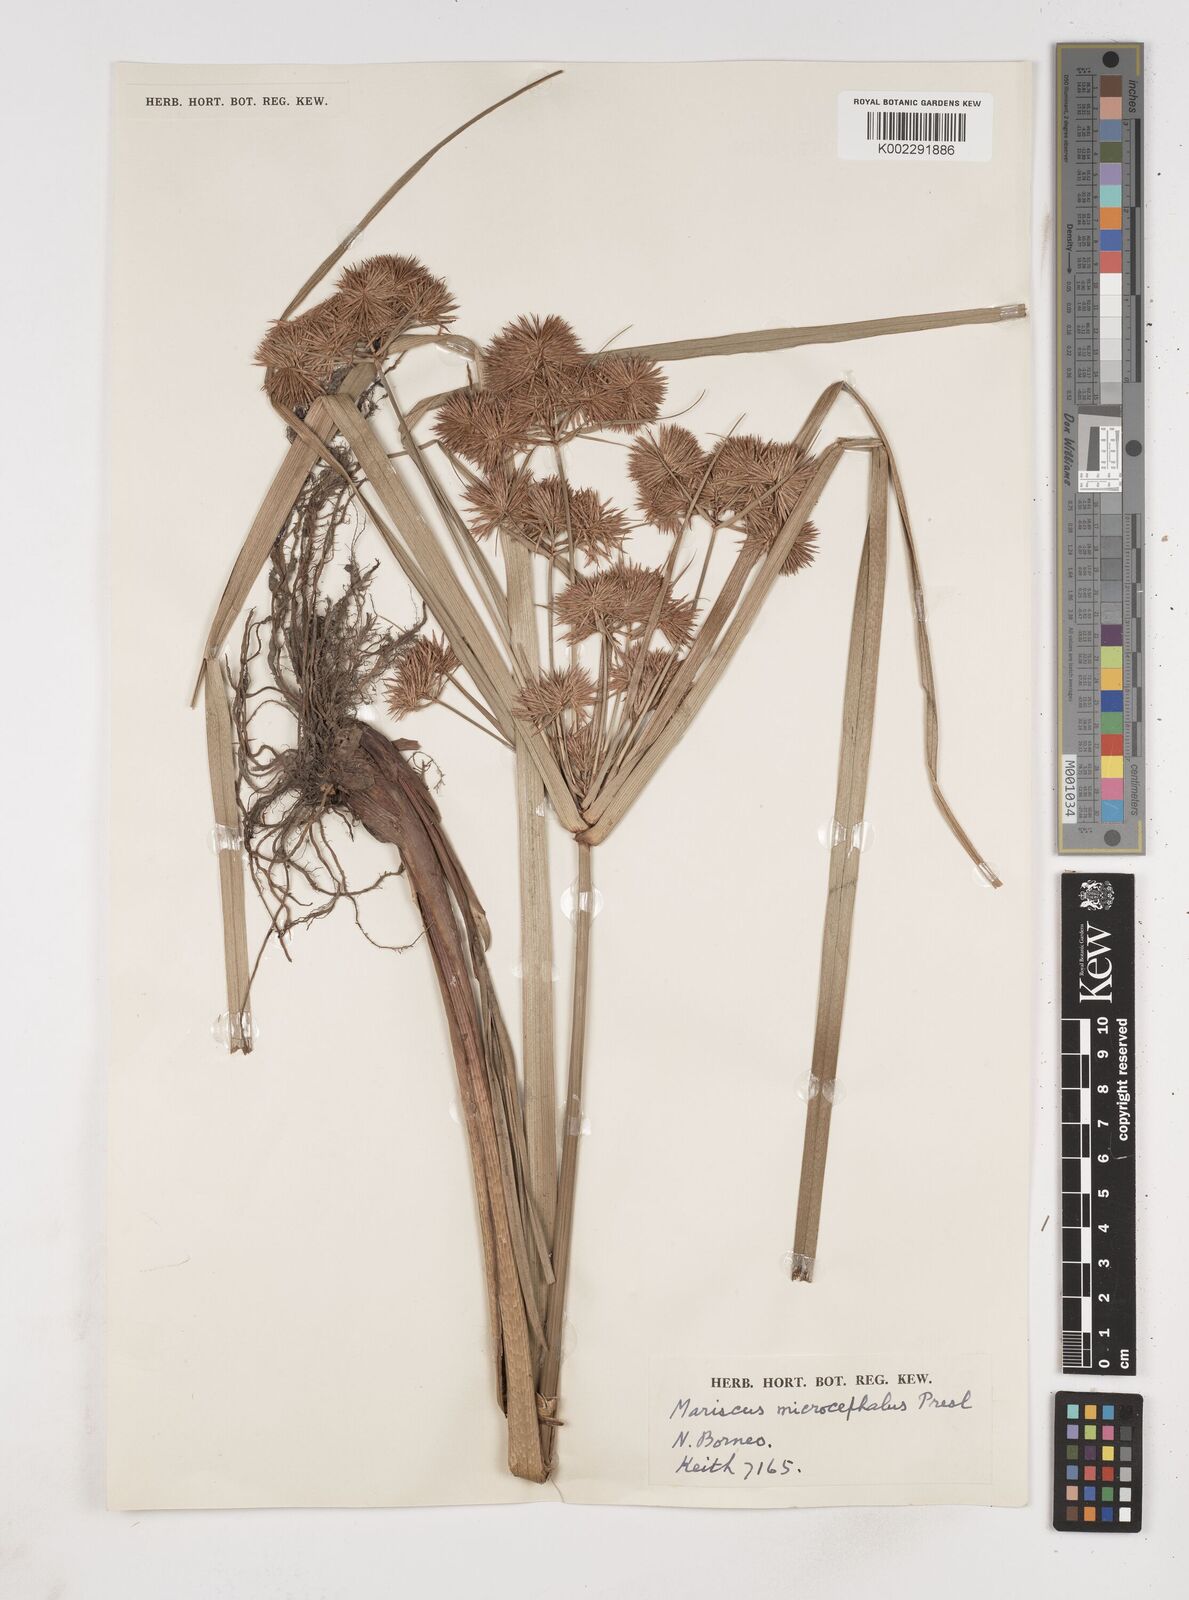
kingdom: Plantae
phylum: Tracheophyta
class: Liliopsida
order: Poales
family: Cyperaceae
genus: Cyperus
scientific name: Cyperus compactus
